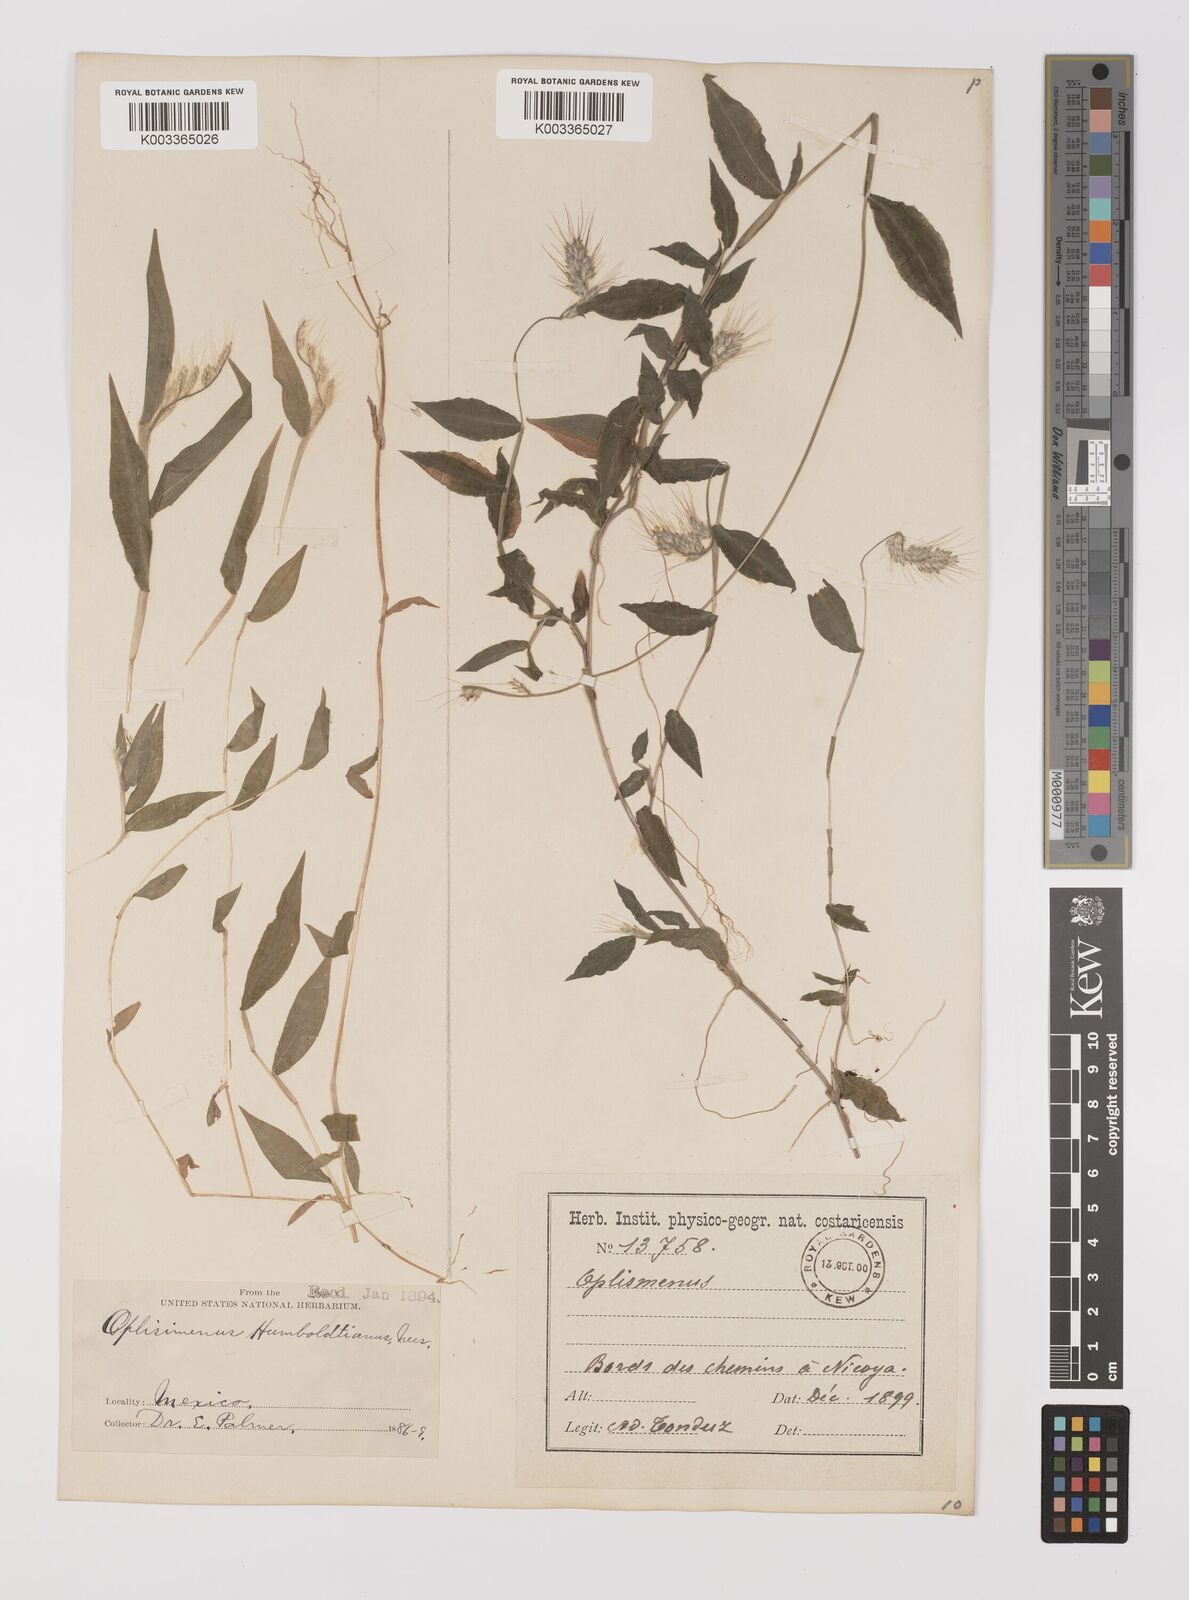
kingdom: Plantae
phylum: Tracheophyta
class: Liliopsida
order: Poales
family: Poaceae
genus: Oplismenus
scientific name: Oplismenus burmanni
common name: Burmann's basketgrass
